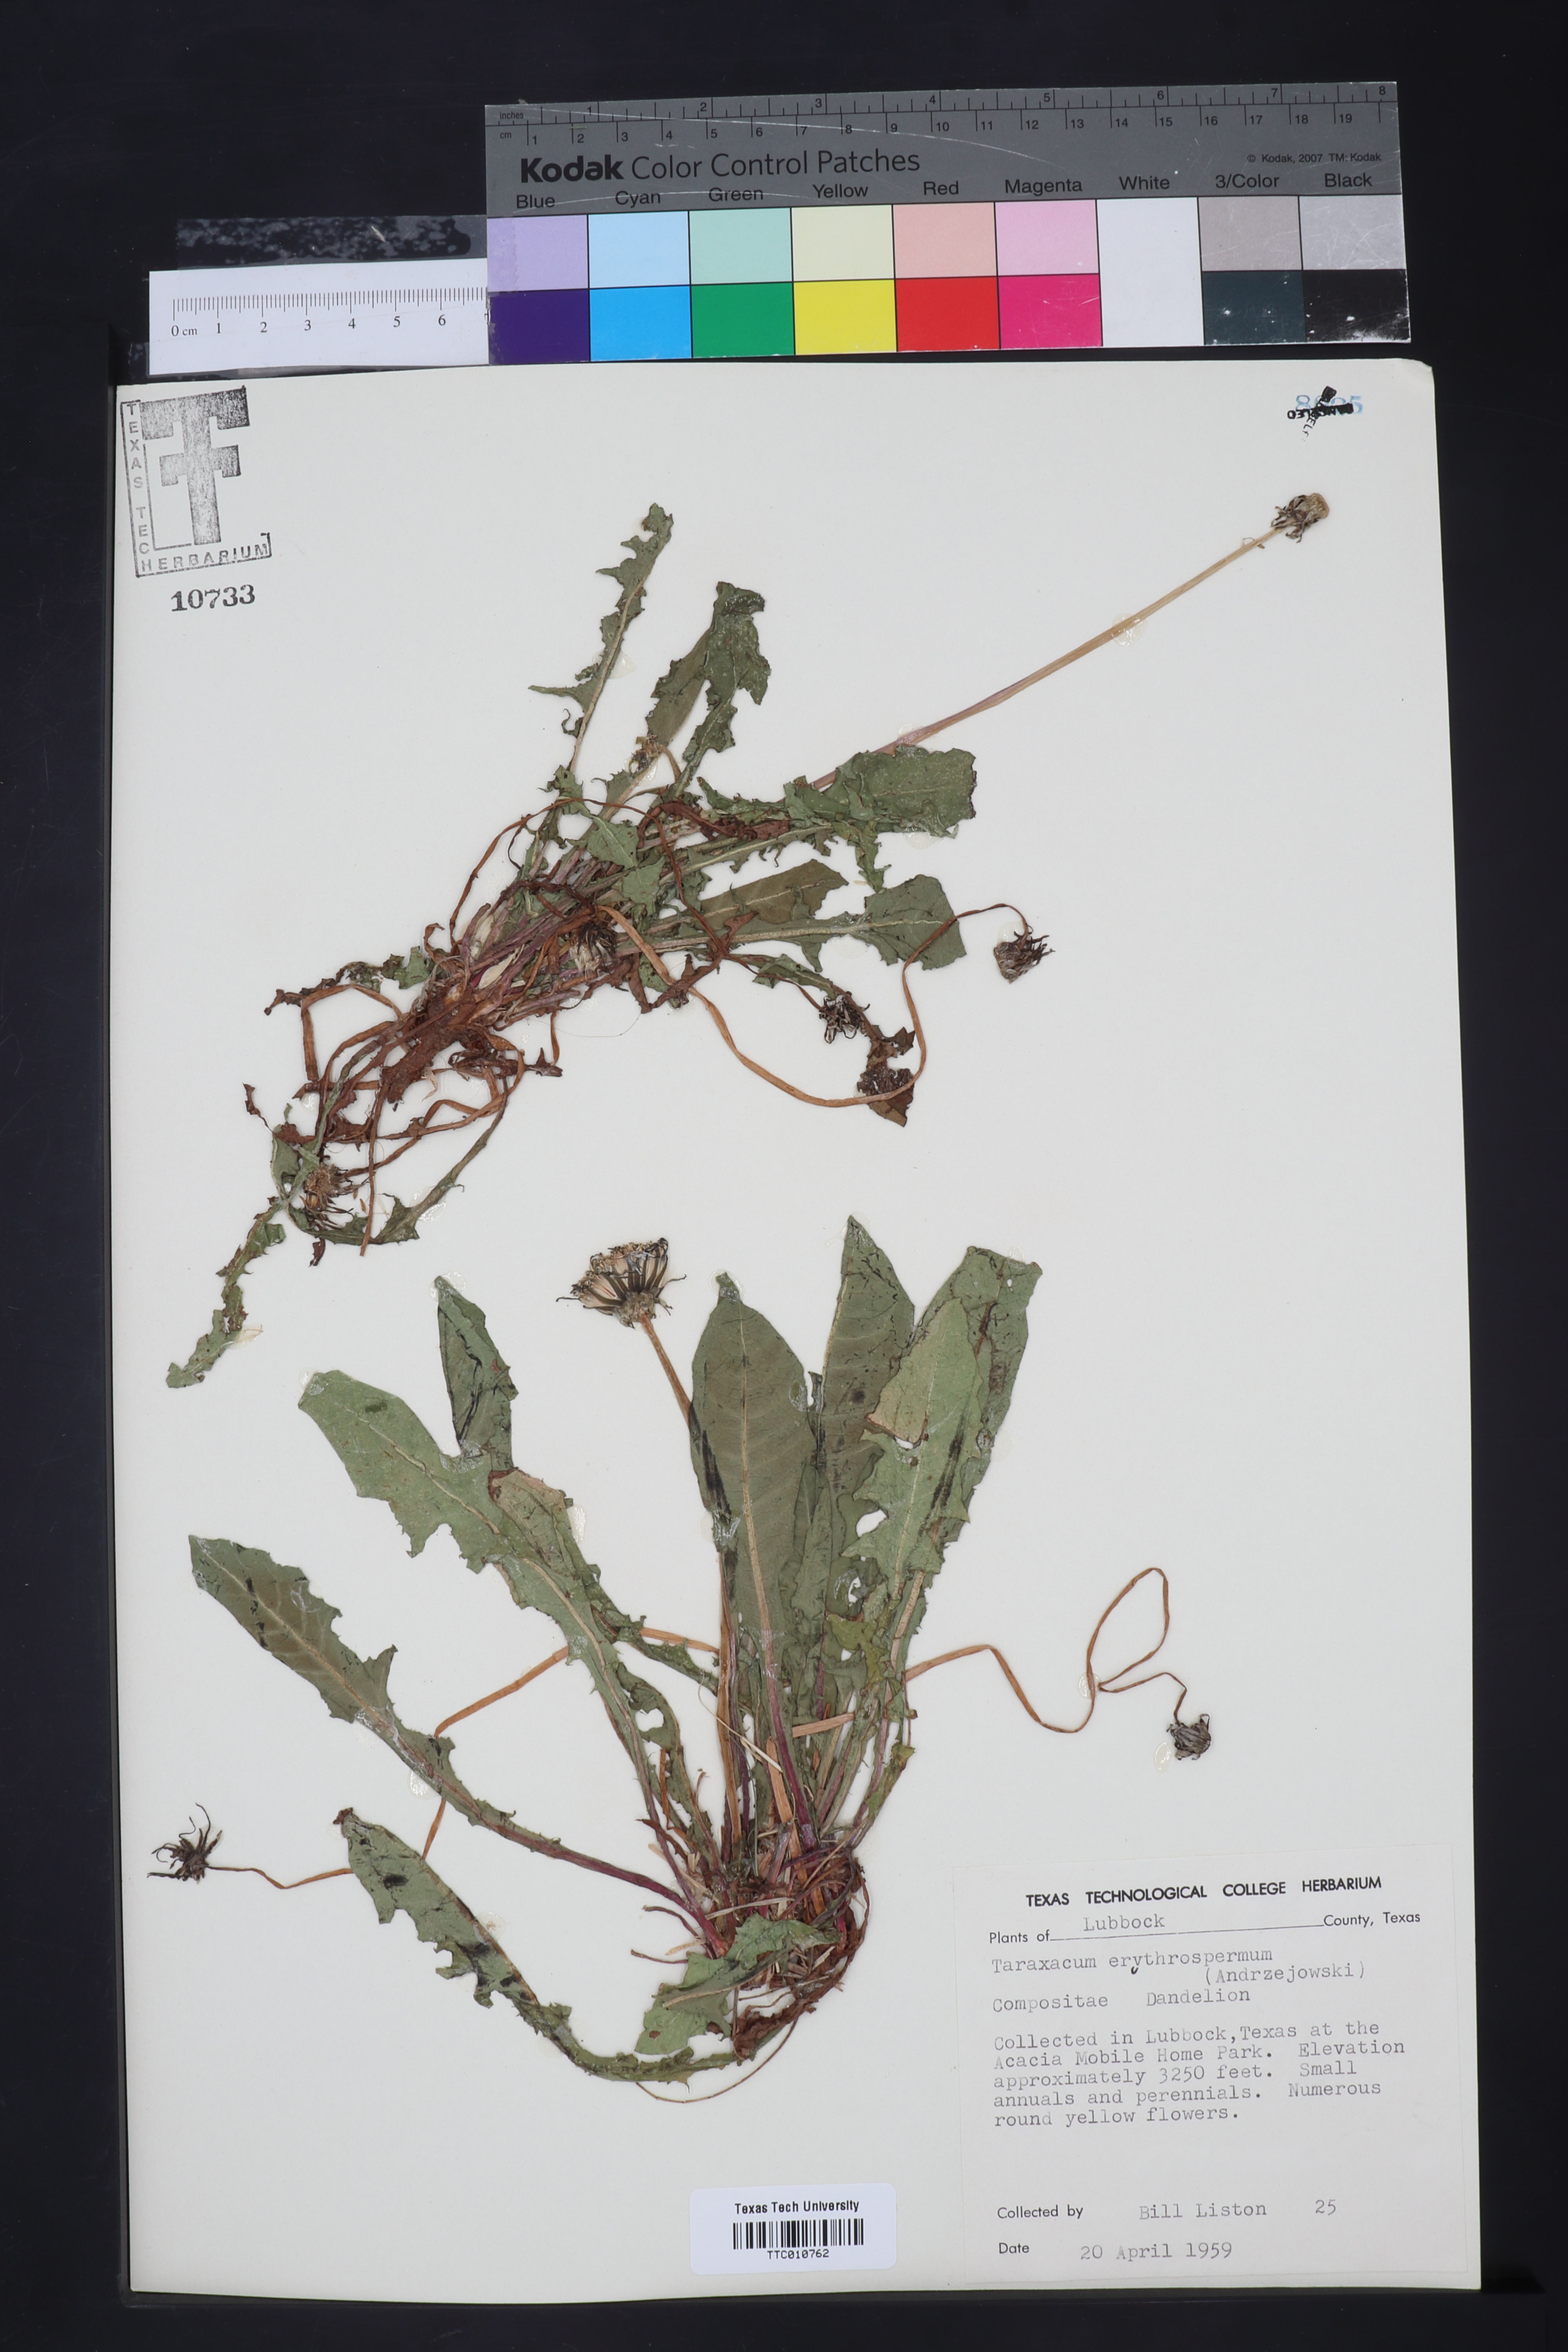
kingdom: Plantae
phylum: Tracheophyta
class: Magnoliopsida
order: Asterales
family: Asteraceae
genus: Taraxacum
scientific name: Taraxacum erythrospermum
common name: Rock dandelion
